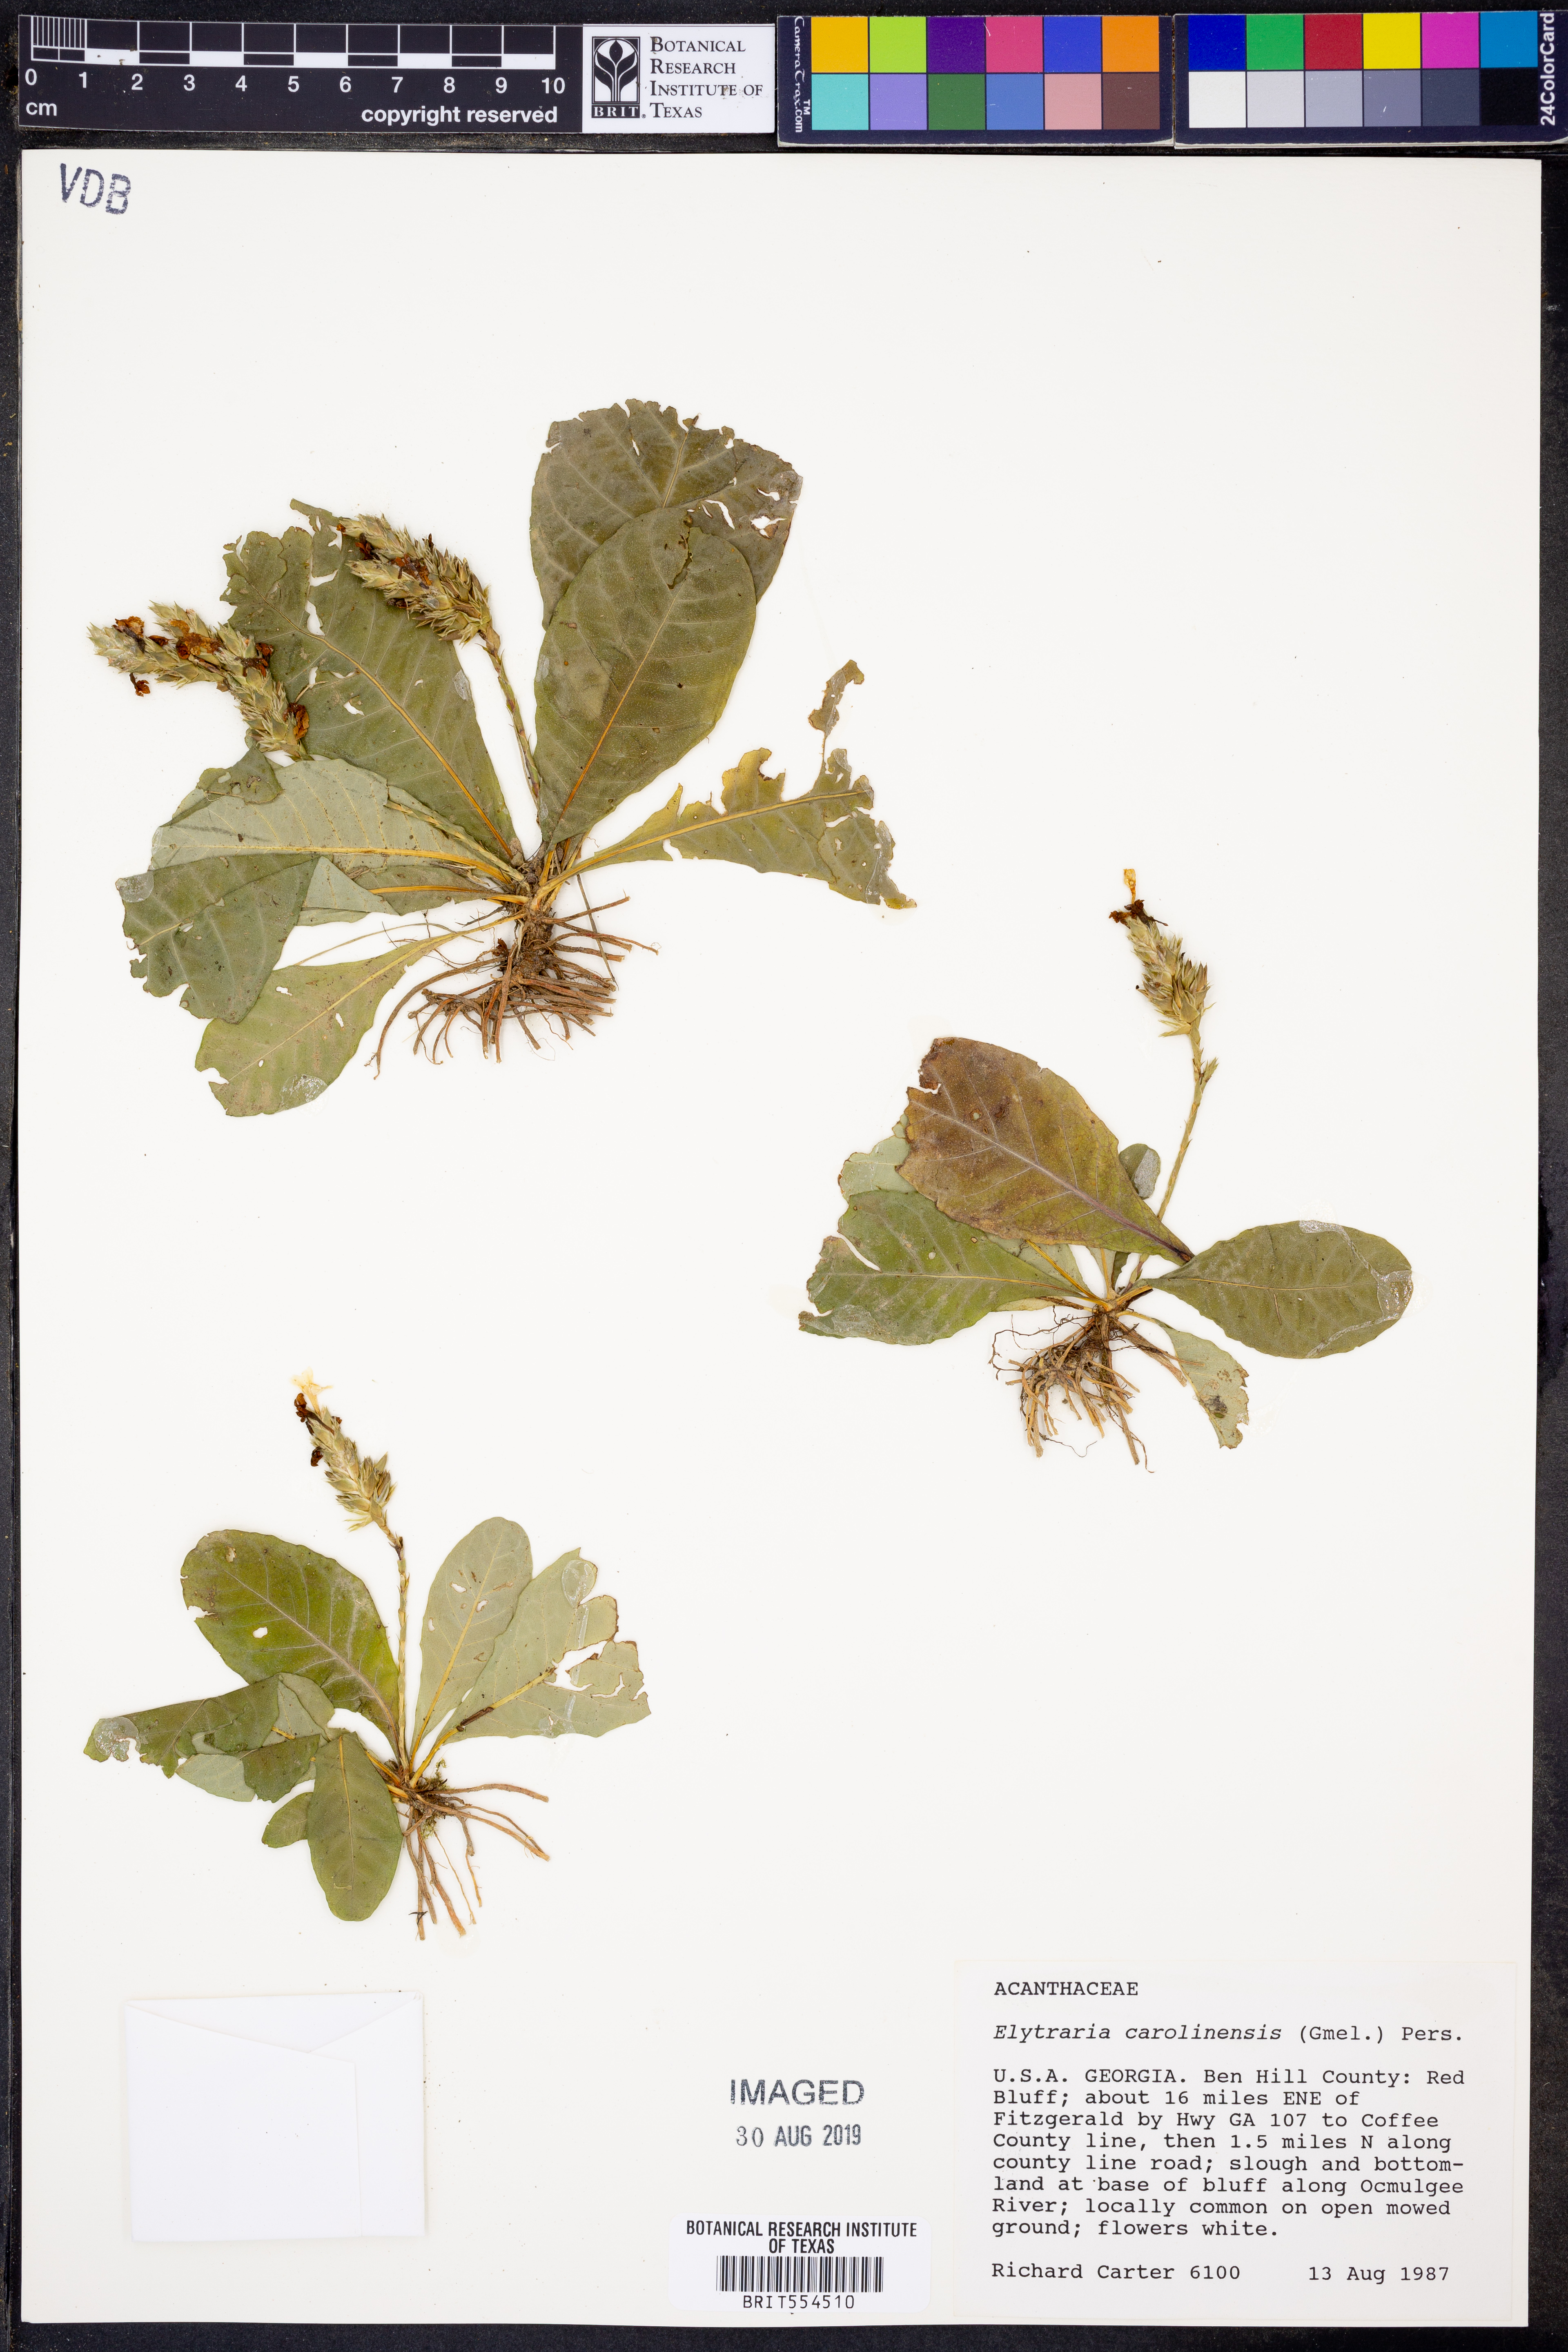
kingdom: Plantae
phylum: Tracheophyta
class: Magnoliopsida
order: Lamiales
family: Acanthaceae
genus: Elytraria
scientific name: Elytraria caroliniensis
